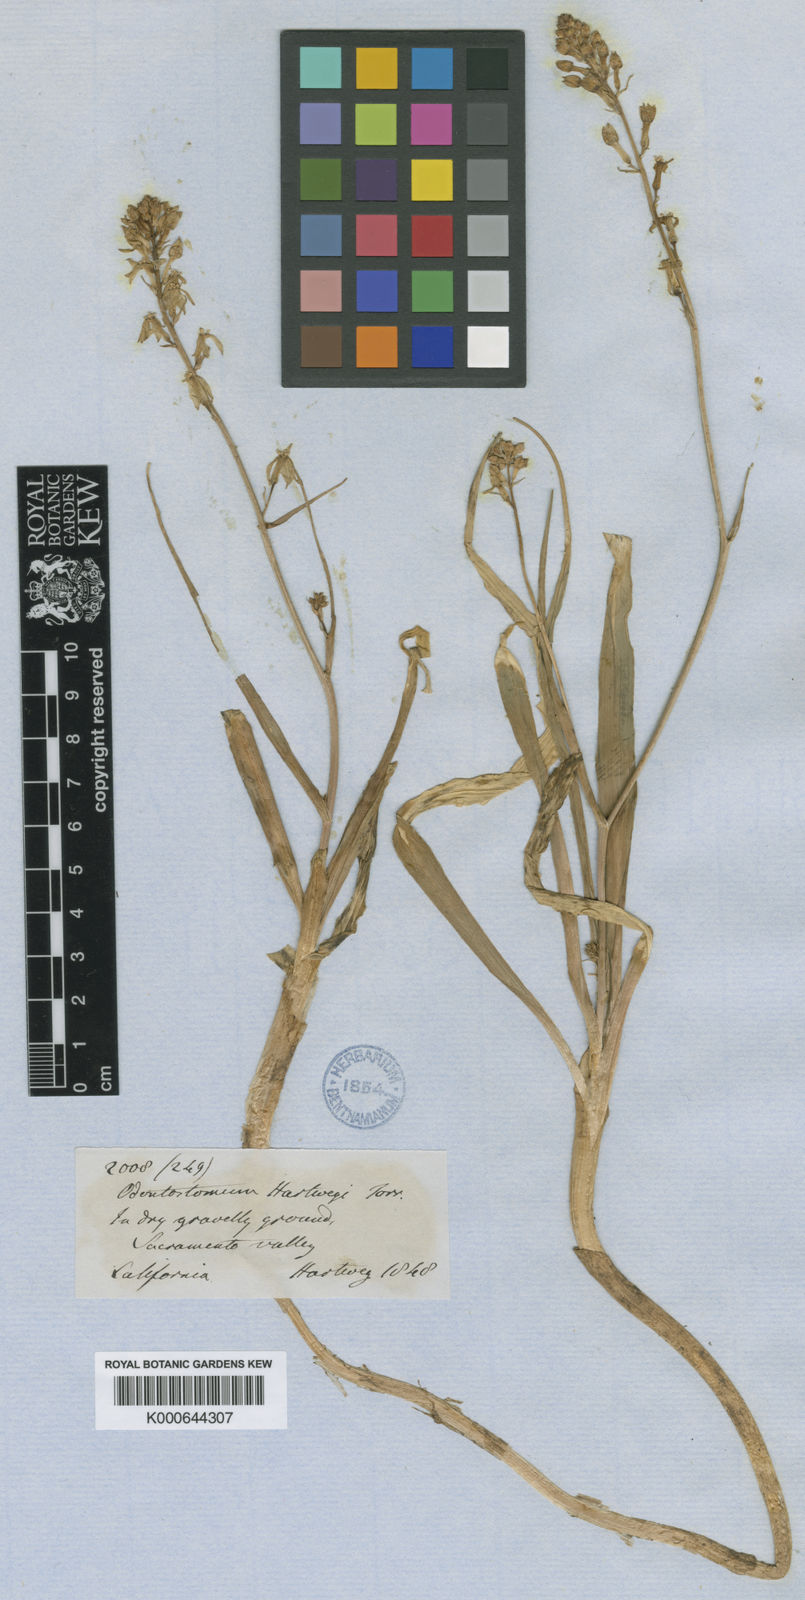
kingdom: Plantae
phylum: Tracheophyta
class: Liliopsida
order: Asparagales
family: Tecophilaeaceae
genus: Odontostomum
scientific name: Odontostomum hartwegii
